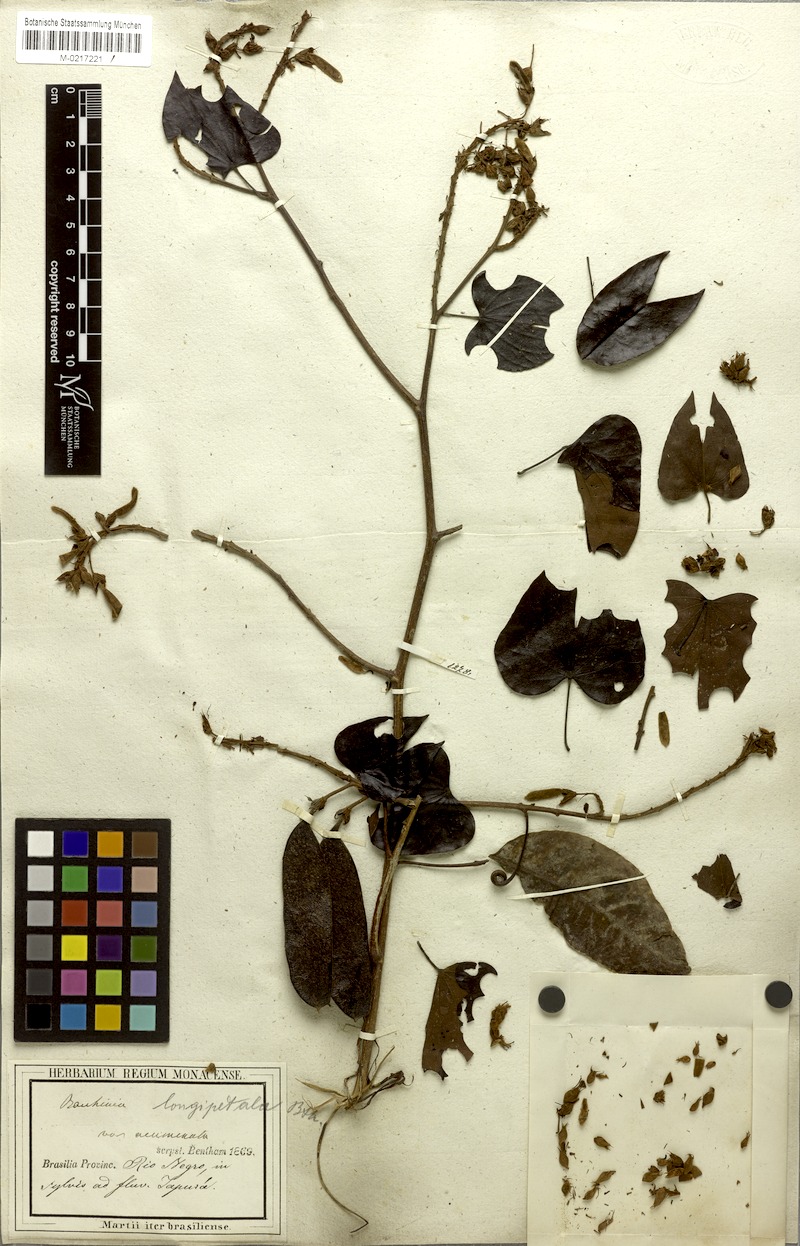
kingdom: Plantae
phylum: Tracheophyta
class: Magnoliopsida
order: Fabales
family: Fabaceae
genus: Schnella
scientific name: Schnella glabra
